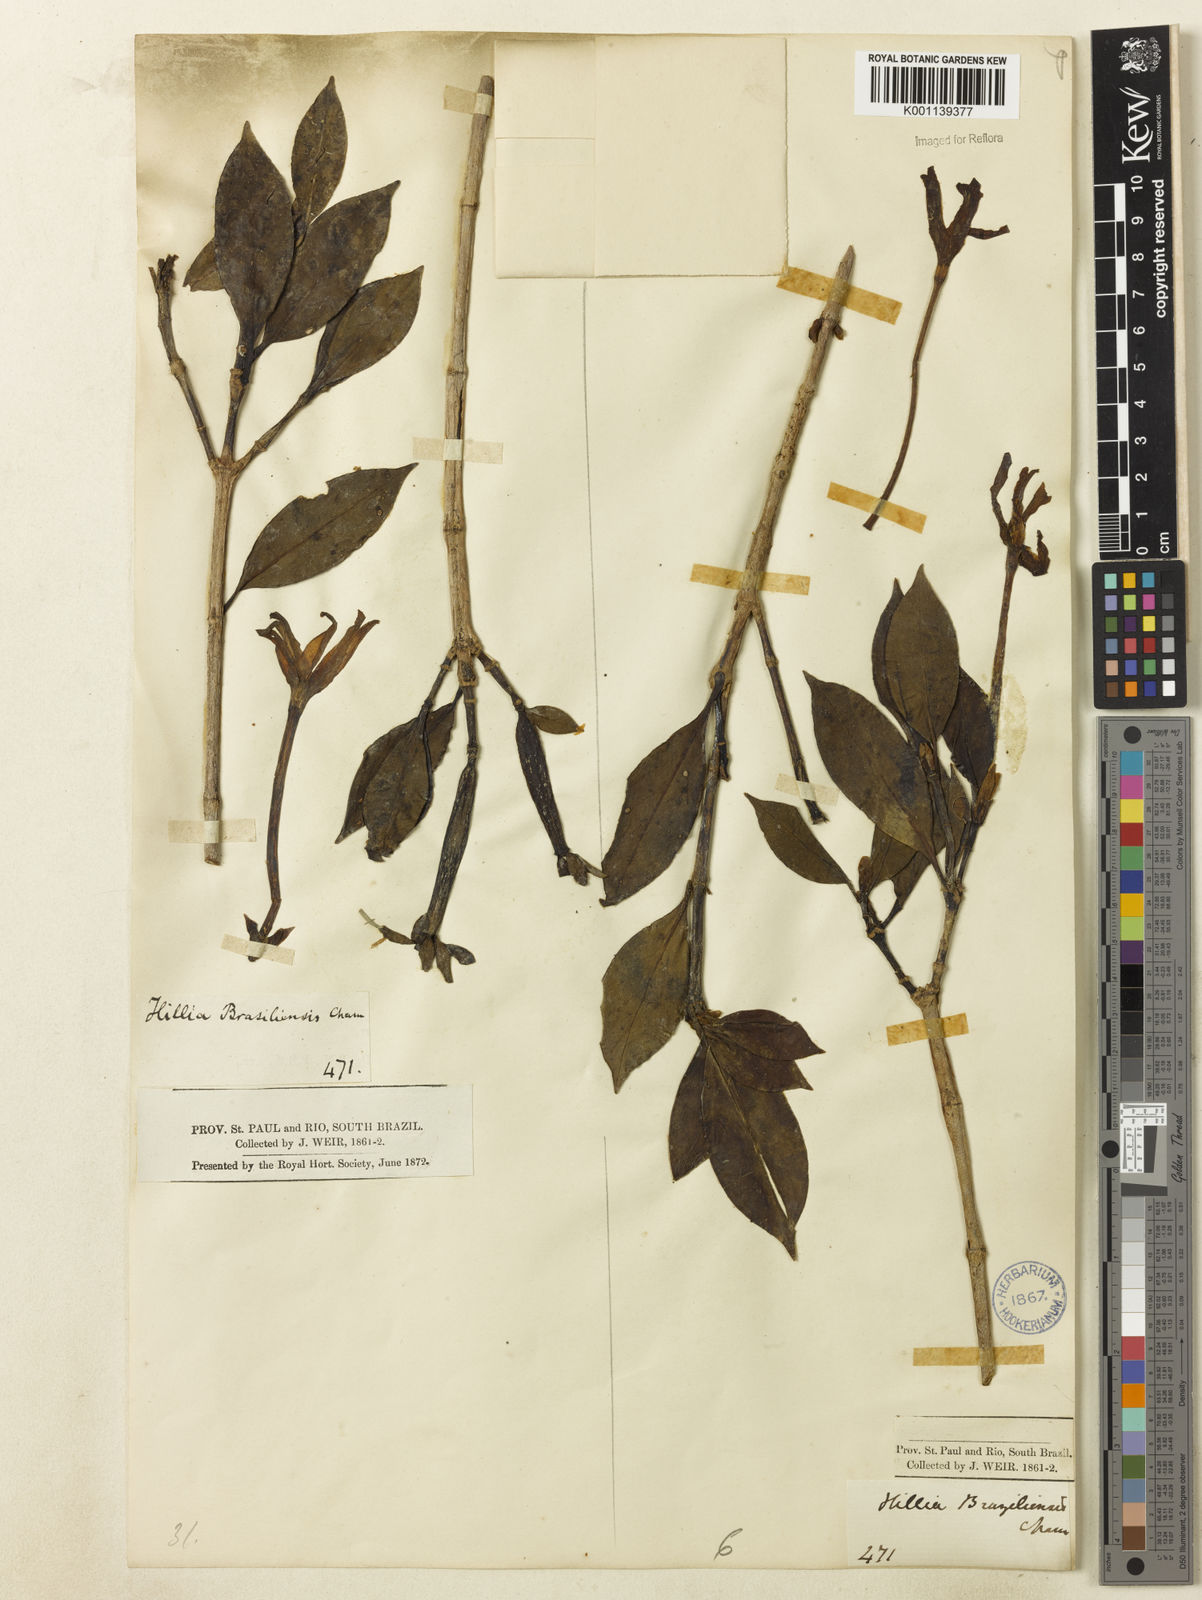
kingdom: Plantae
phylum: Tracheophyta
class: Magnoliopsida
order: Gentianales
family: Rubiaceae
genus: Hillia
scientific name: Hillia parasitica
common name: Morning star
